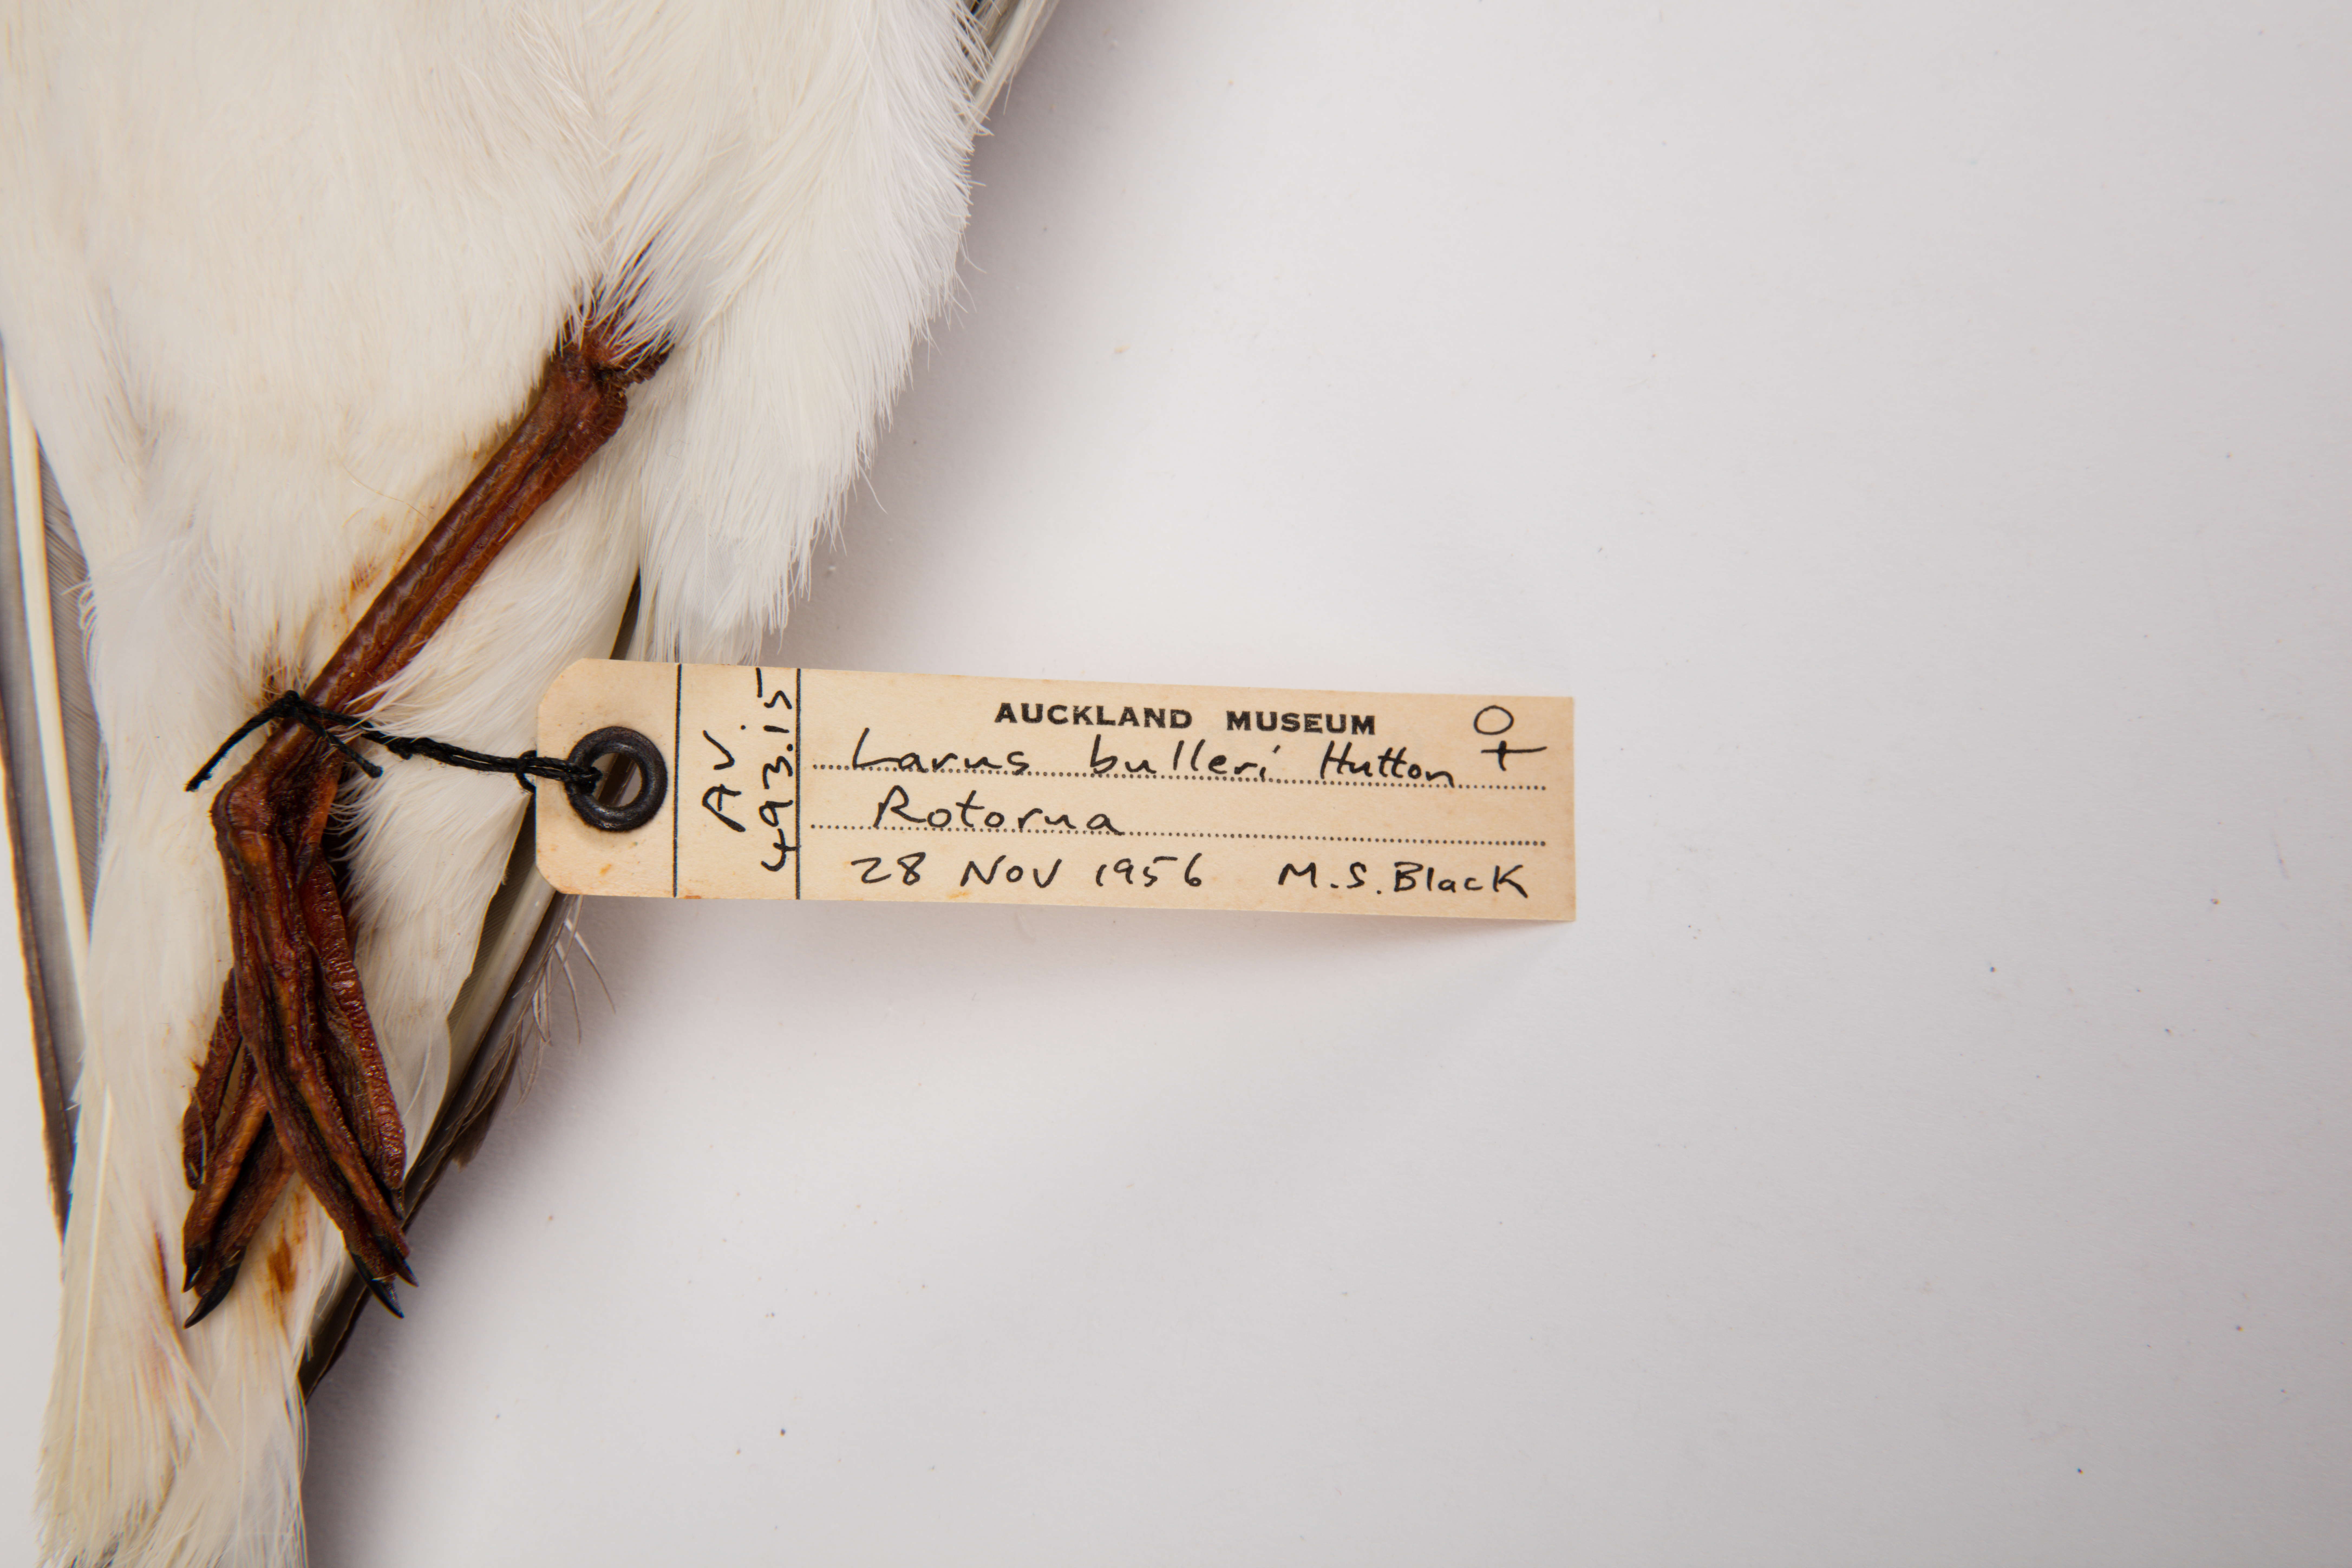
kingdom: Animalia
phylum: Chordata
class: Aves
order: Charadriiformes
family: Laridae
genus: Chroicocephalus
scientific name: Chroicocephalus bulleri
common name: Black-billed gull
